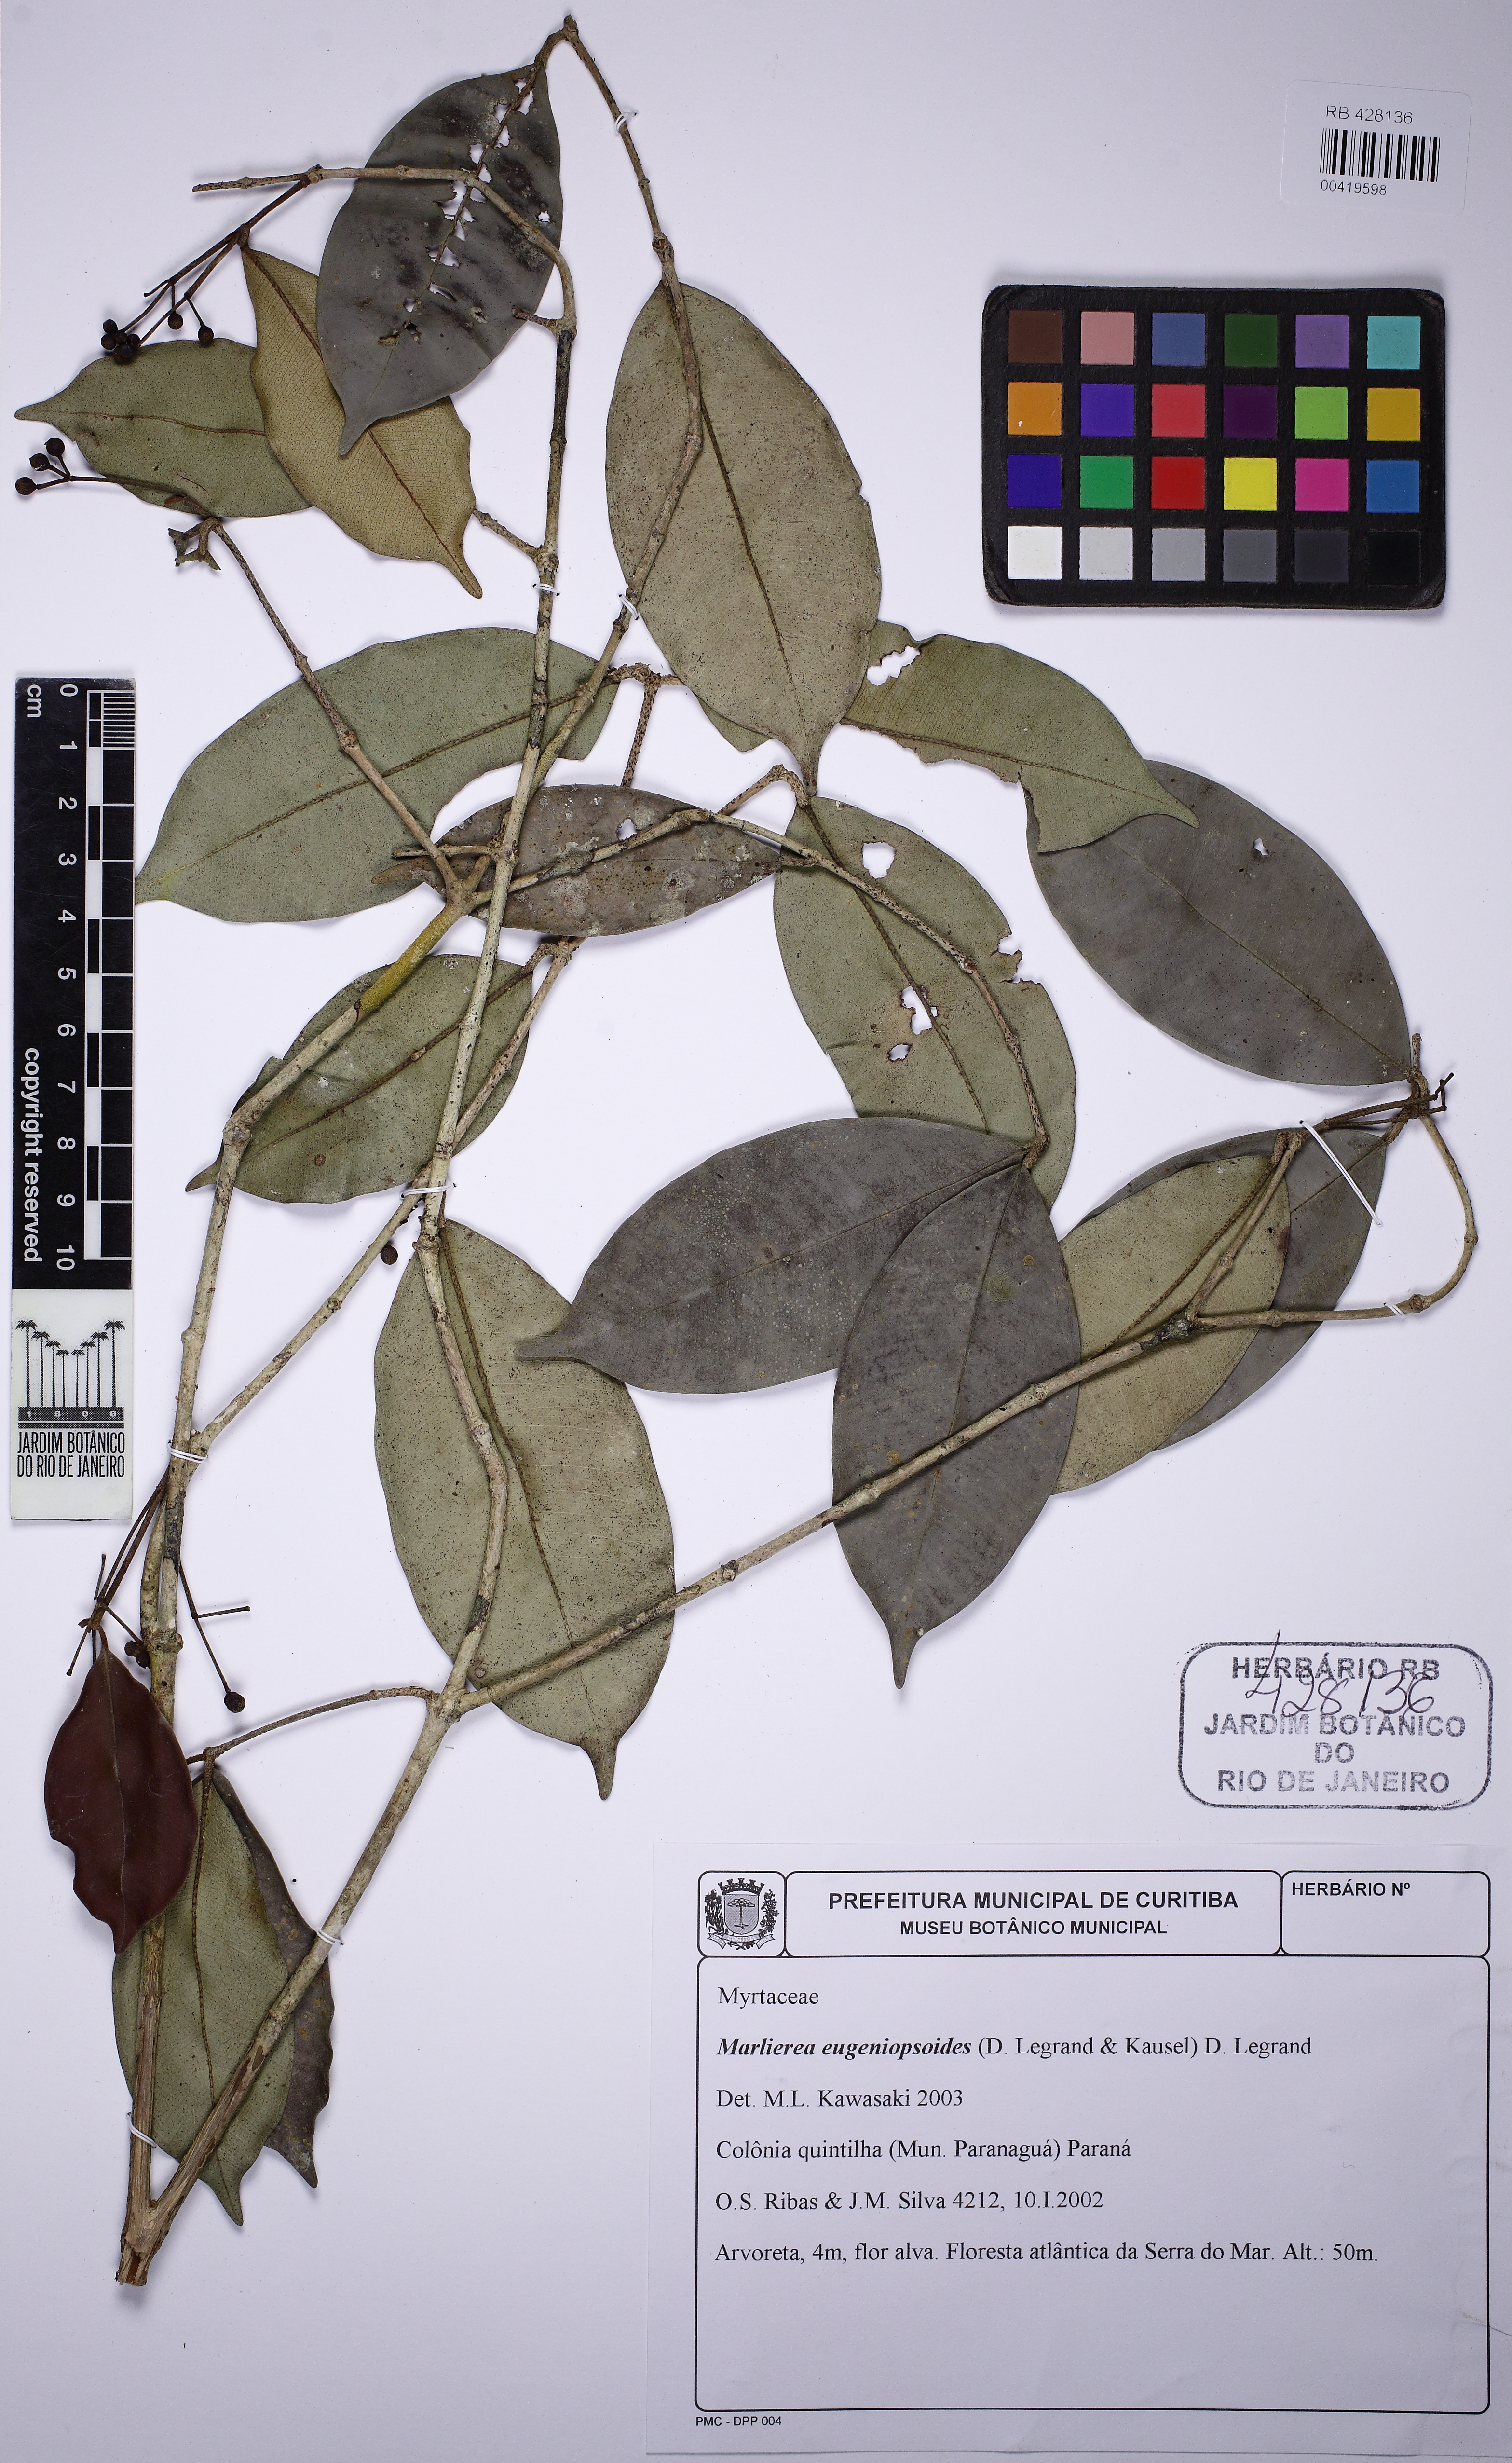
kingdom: Plantae
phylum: Tracheophyta
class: Magnoliopsida
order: Myrtales
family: Myrtaceae
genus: Myrcia
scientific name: Myrcia eugeniopsoides
